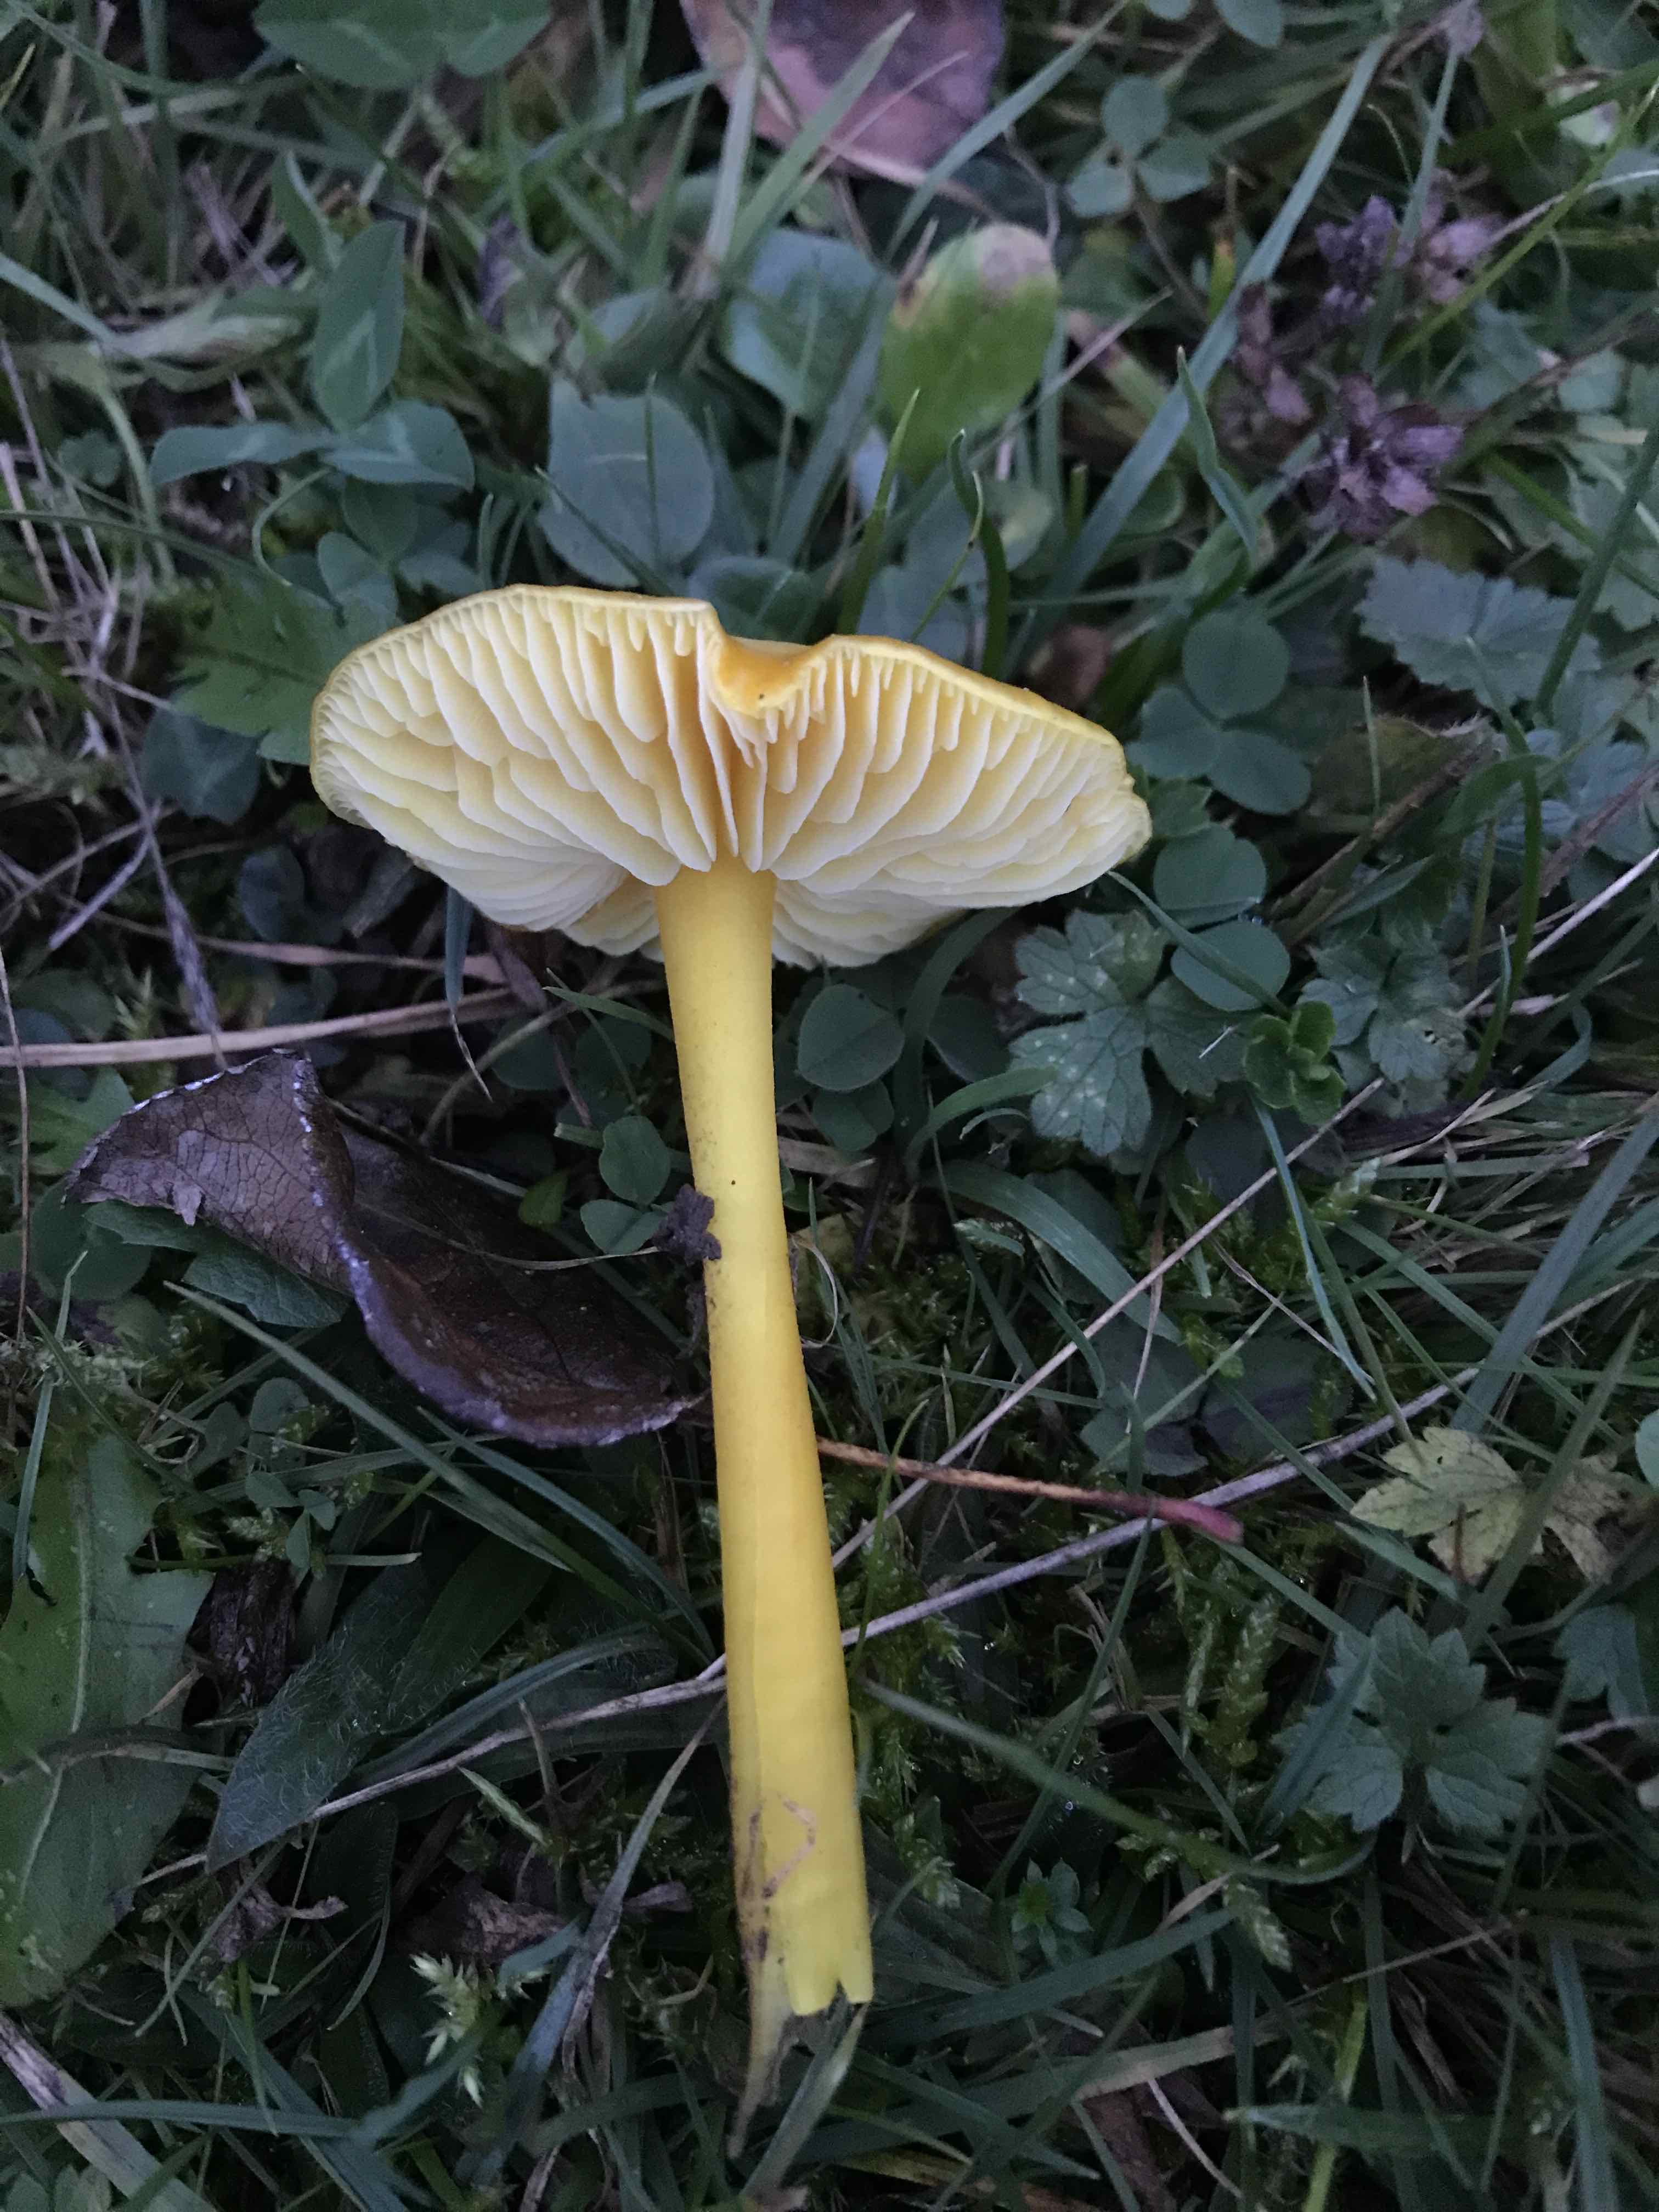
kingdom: Fungi
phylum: Basidiomycota
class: Agaricomycetes
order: Agaricales
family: Hygrophoraceae
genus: Hygrocybe
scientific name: Hygrocybe chlorophana
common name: gul vokshat
